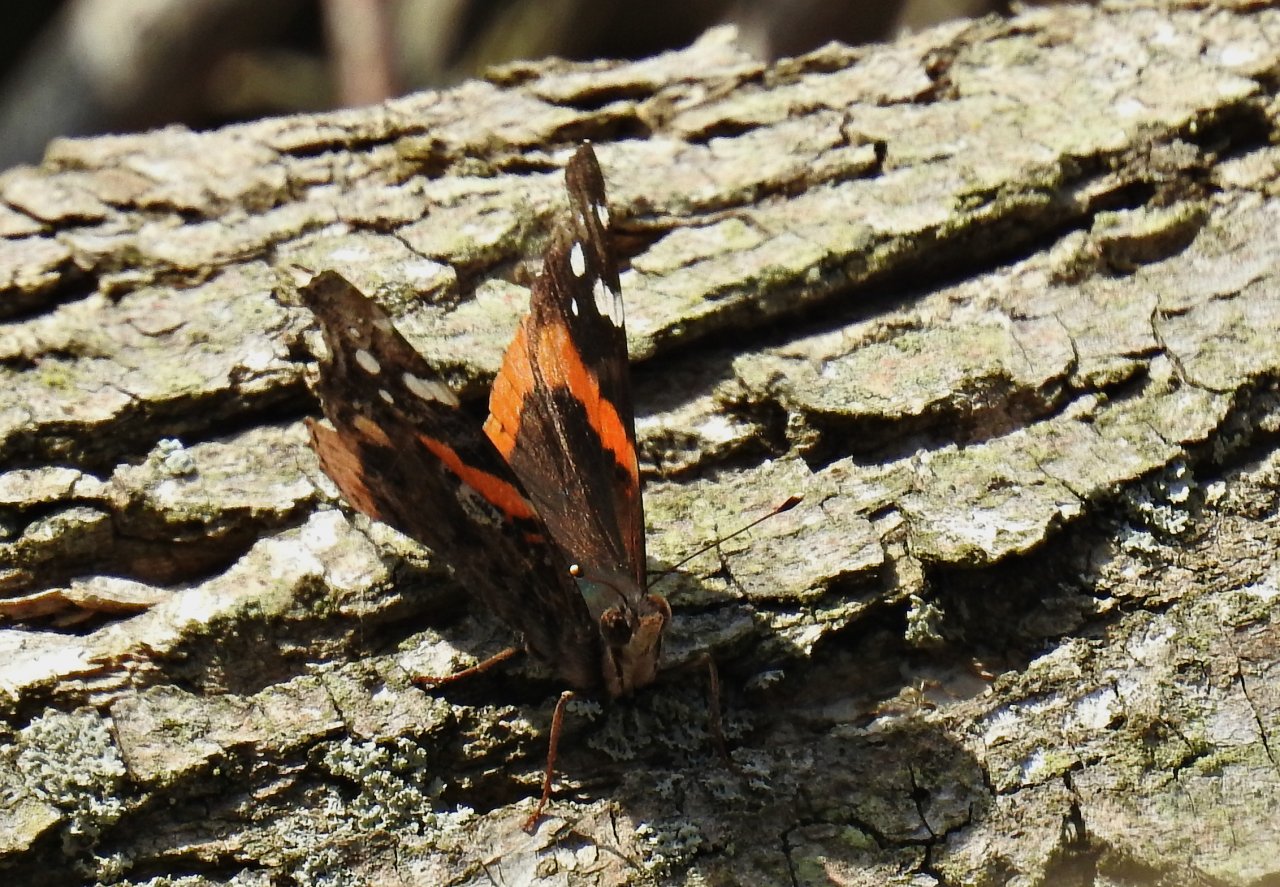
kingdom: Animalia
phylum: Arthropoda
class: Insecta
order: Lepidoptera
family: Nymphalidae
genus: Vanessa
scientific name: Vanessa atalanta
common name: Red Admiral
